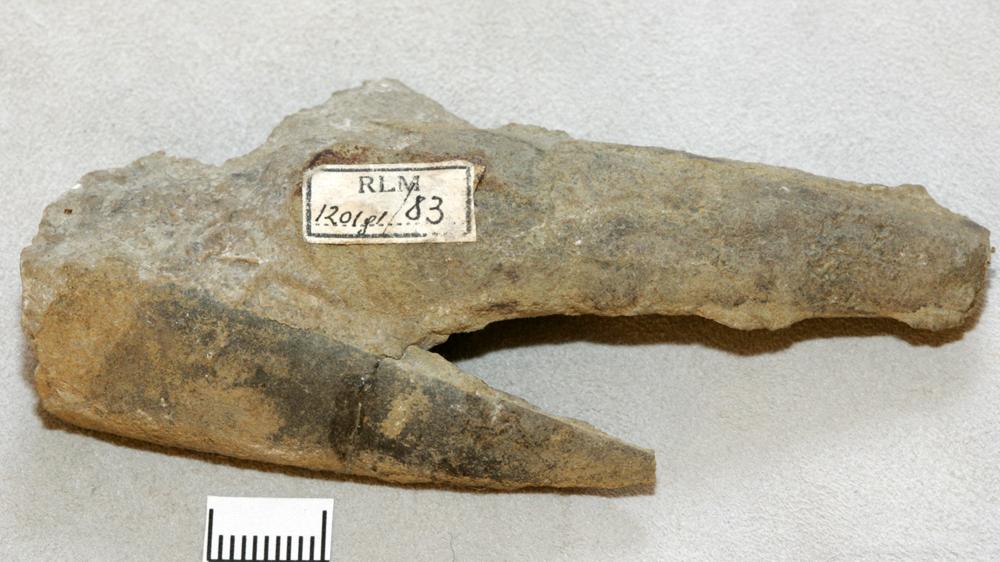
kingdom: Animalia
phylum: Annelida
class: Polychaeta
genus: Hyolithes
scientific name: Hyolithes acutus
